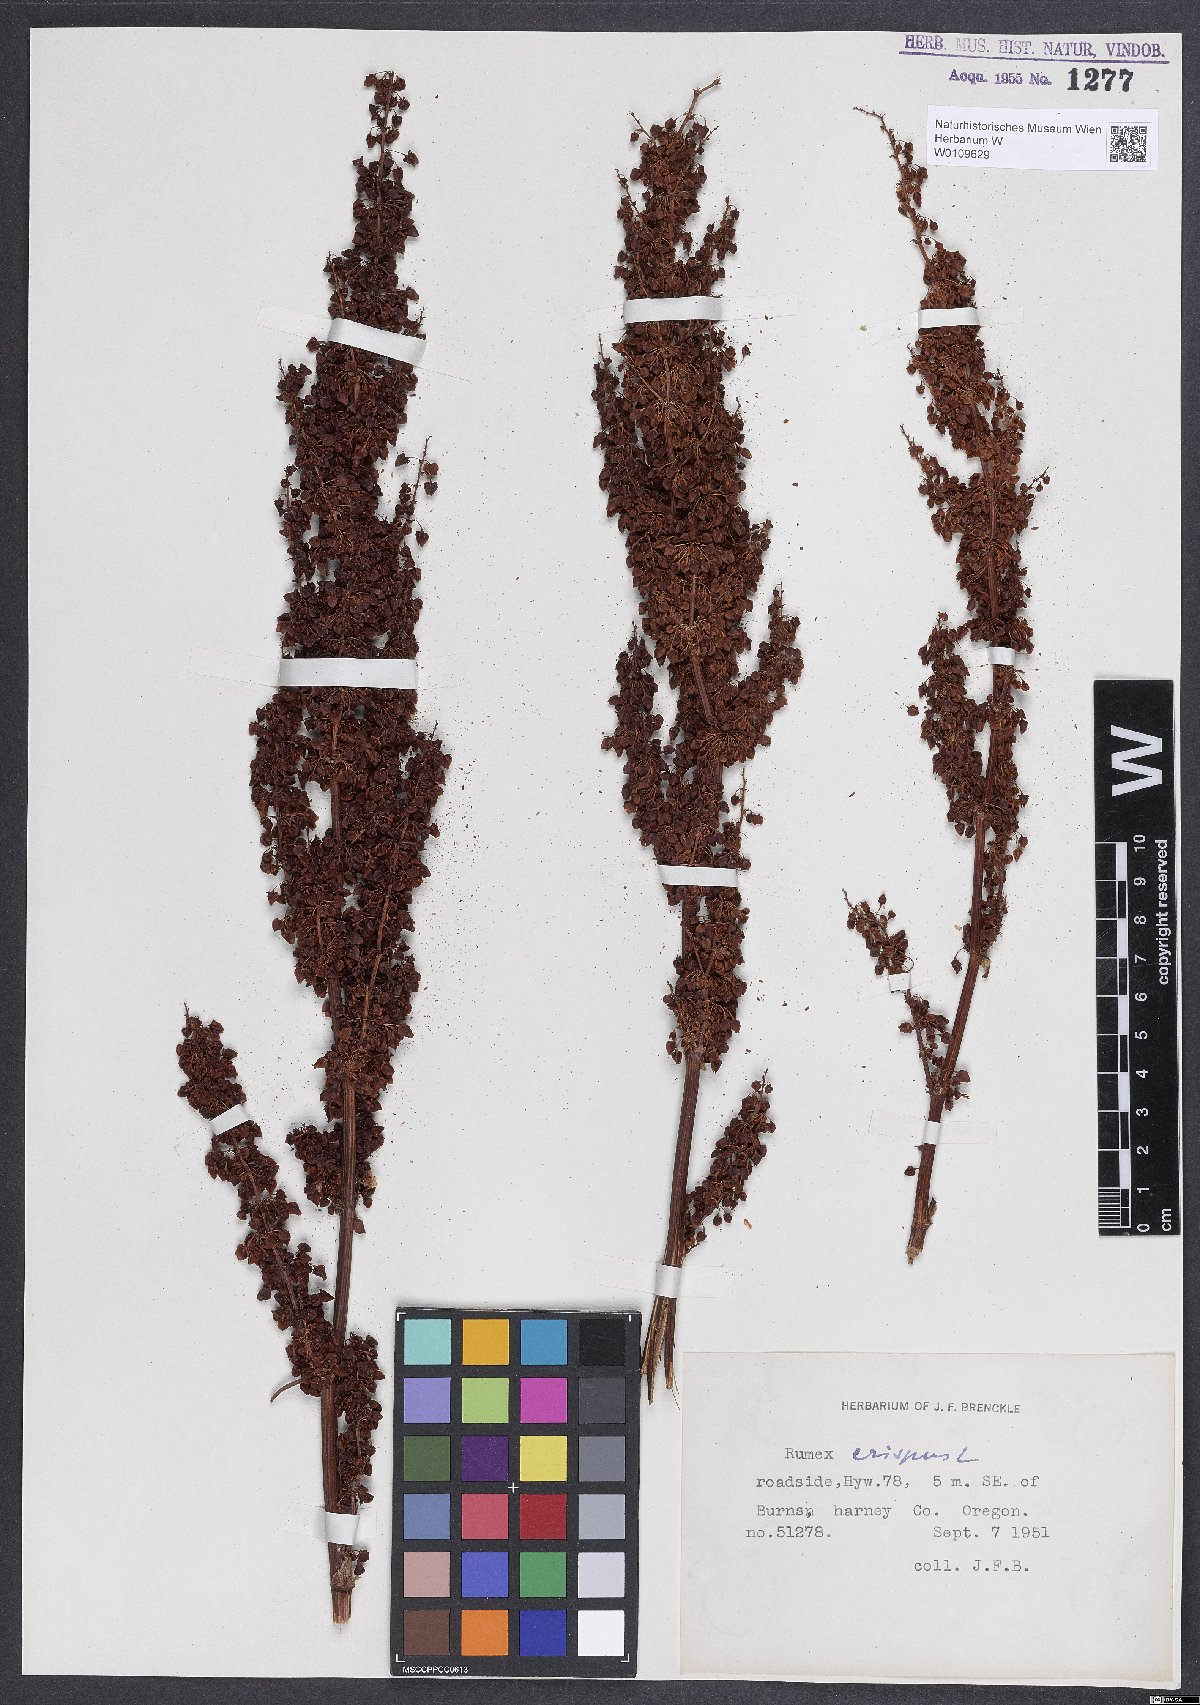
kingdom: Plantae
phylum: Tracheophyta
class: Magnoliopsida
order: Caryophyllales
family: Polygonaceae
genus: Rumex
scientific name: Rumex crispus
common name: Curled dock
